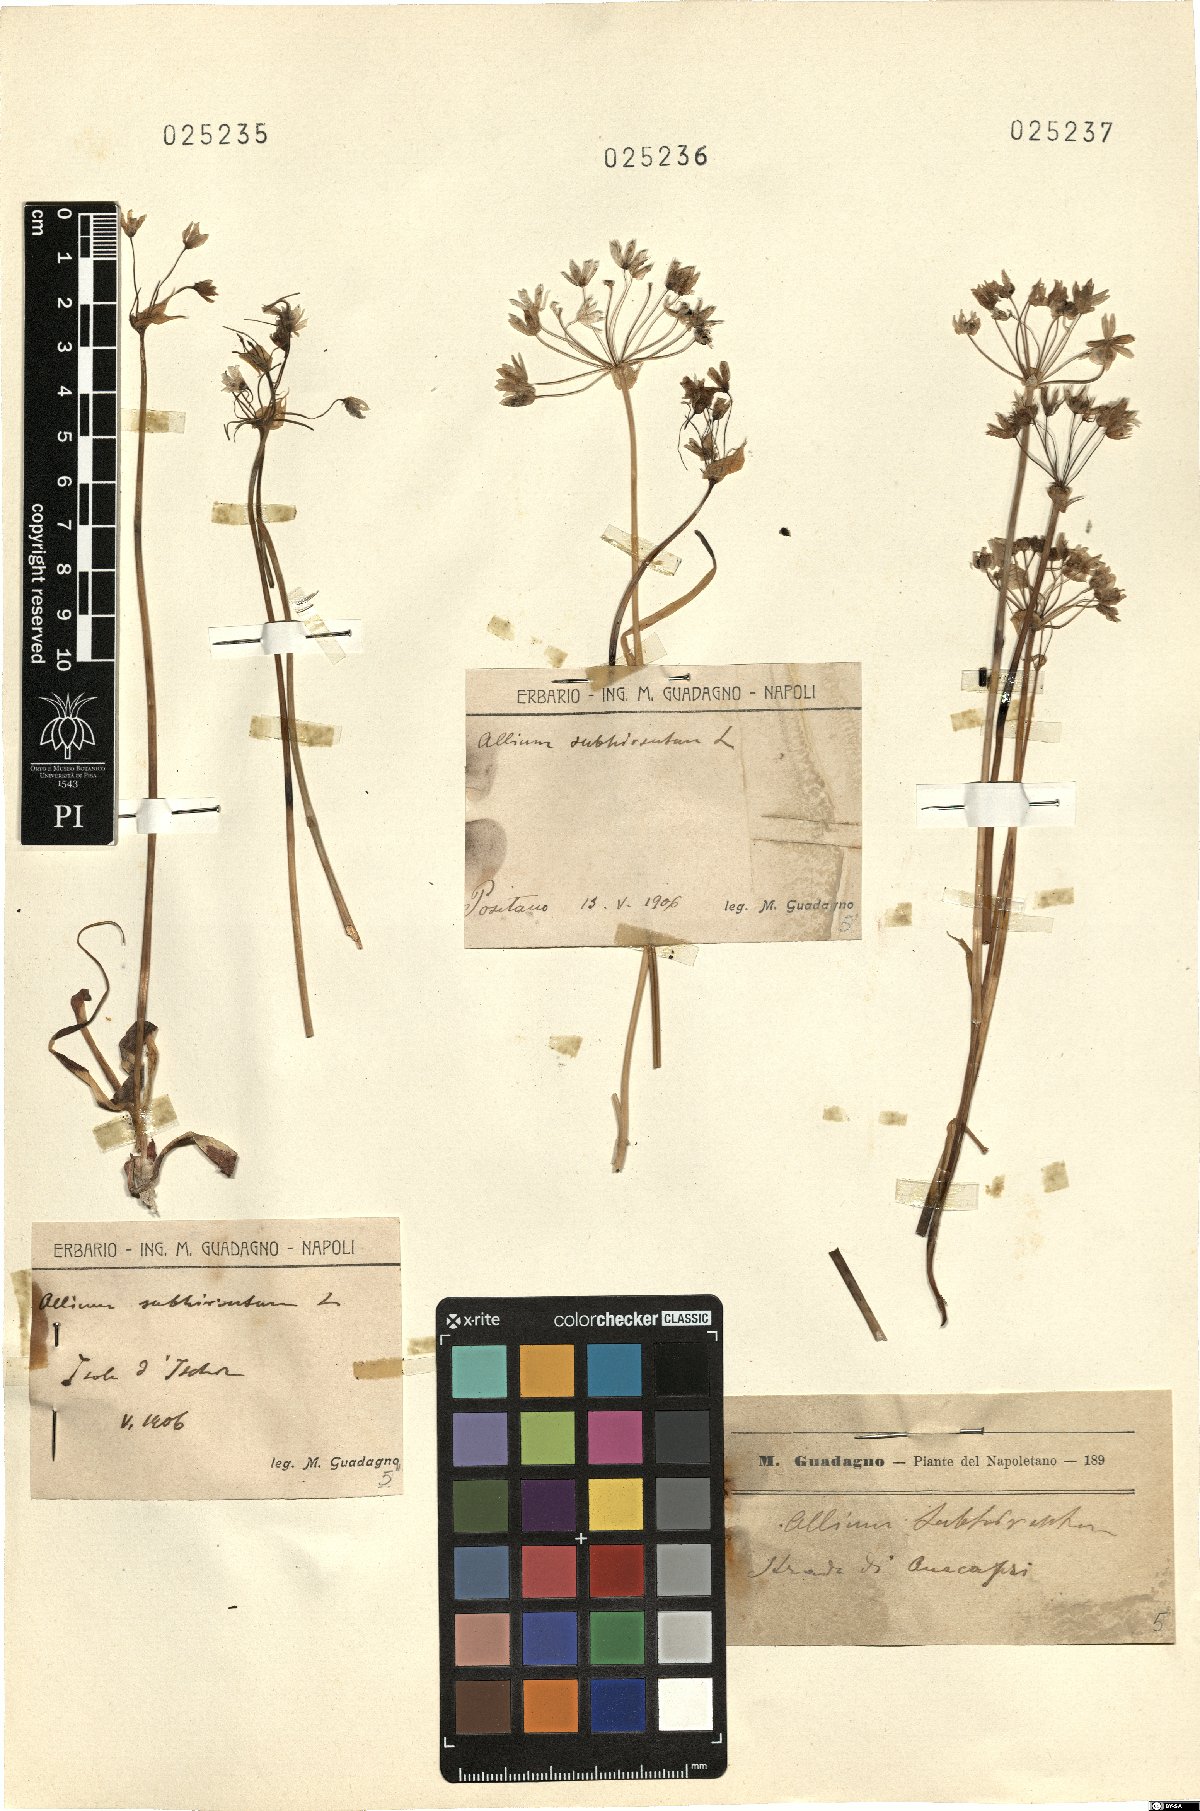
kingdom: Plantae
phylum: Tracheophyta
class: Liliopsida
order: Asparagales
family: Amaryllidaceae
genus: Allium
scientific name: Allium subhirsutum
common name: Hairy garlic
